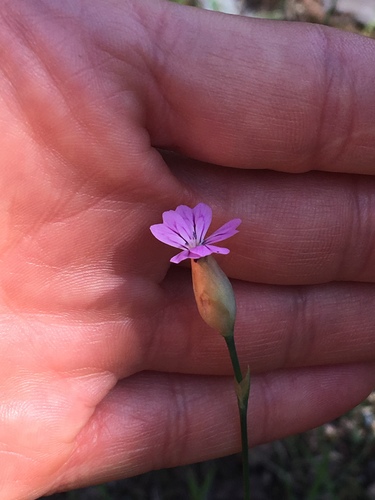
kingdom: Plantae
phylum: Tracheophyta
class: Magnoliopsida
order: Caryophyllales
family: Caryophyllaceae
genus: Petrorhagia
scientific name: Petrorhagia nanteuilii
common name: Proliferous pink
